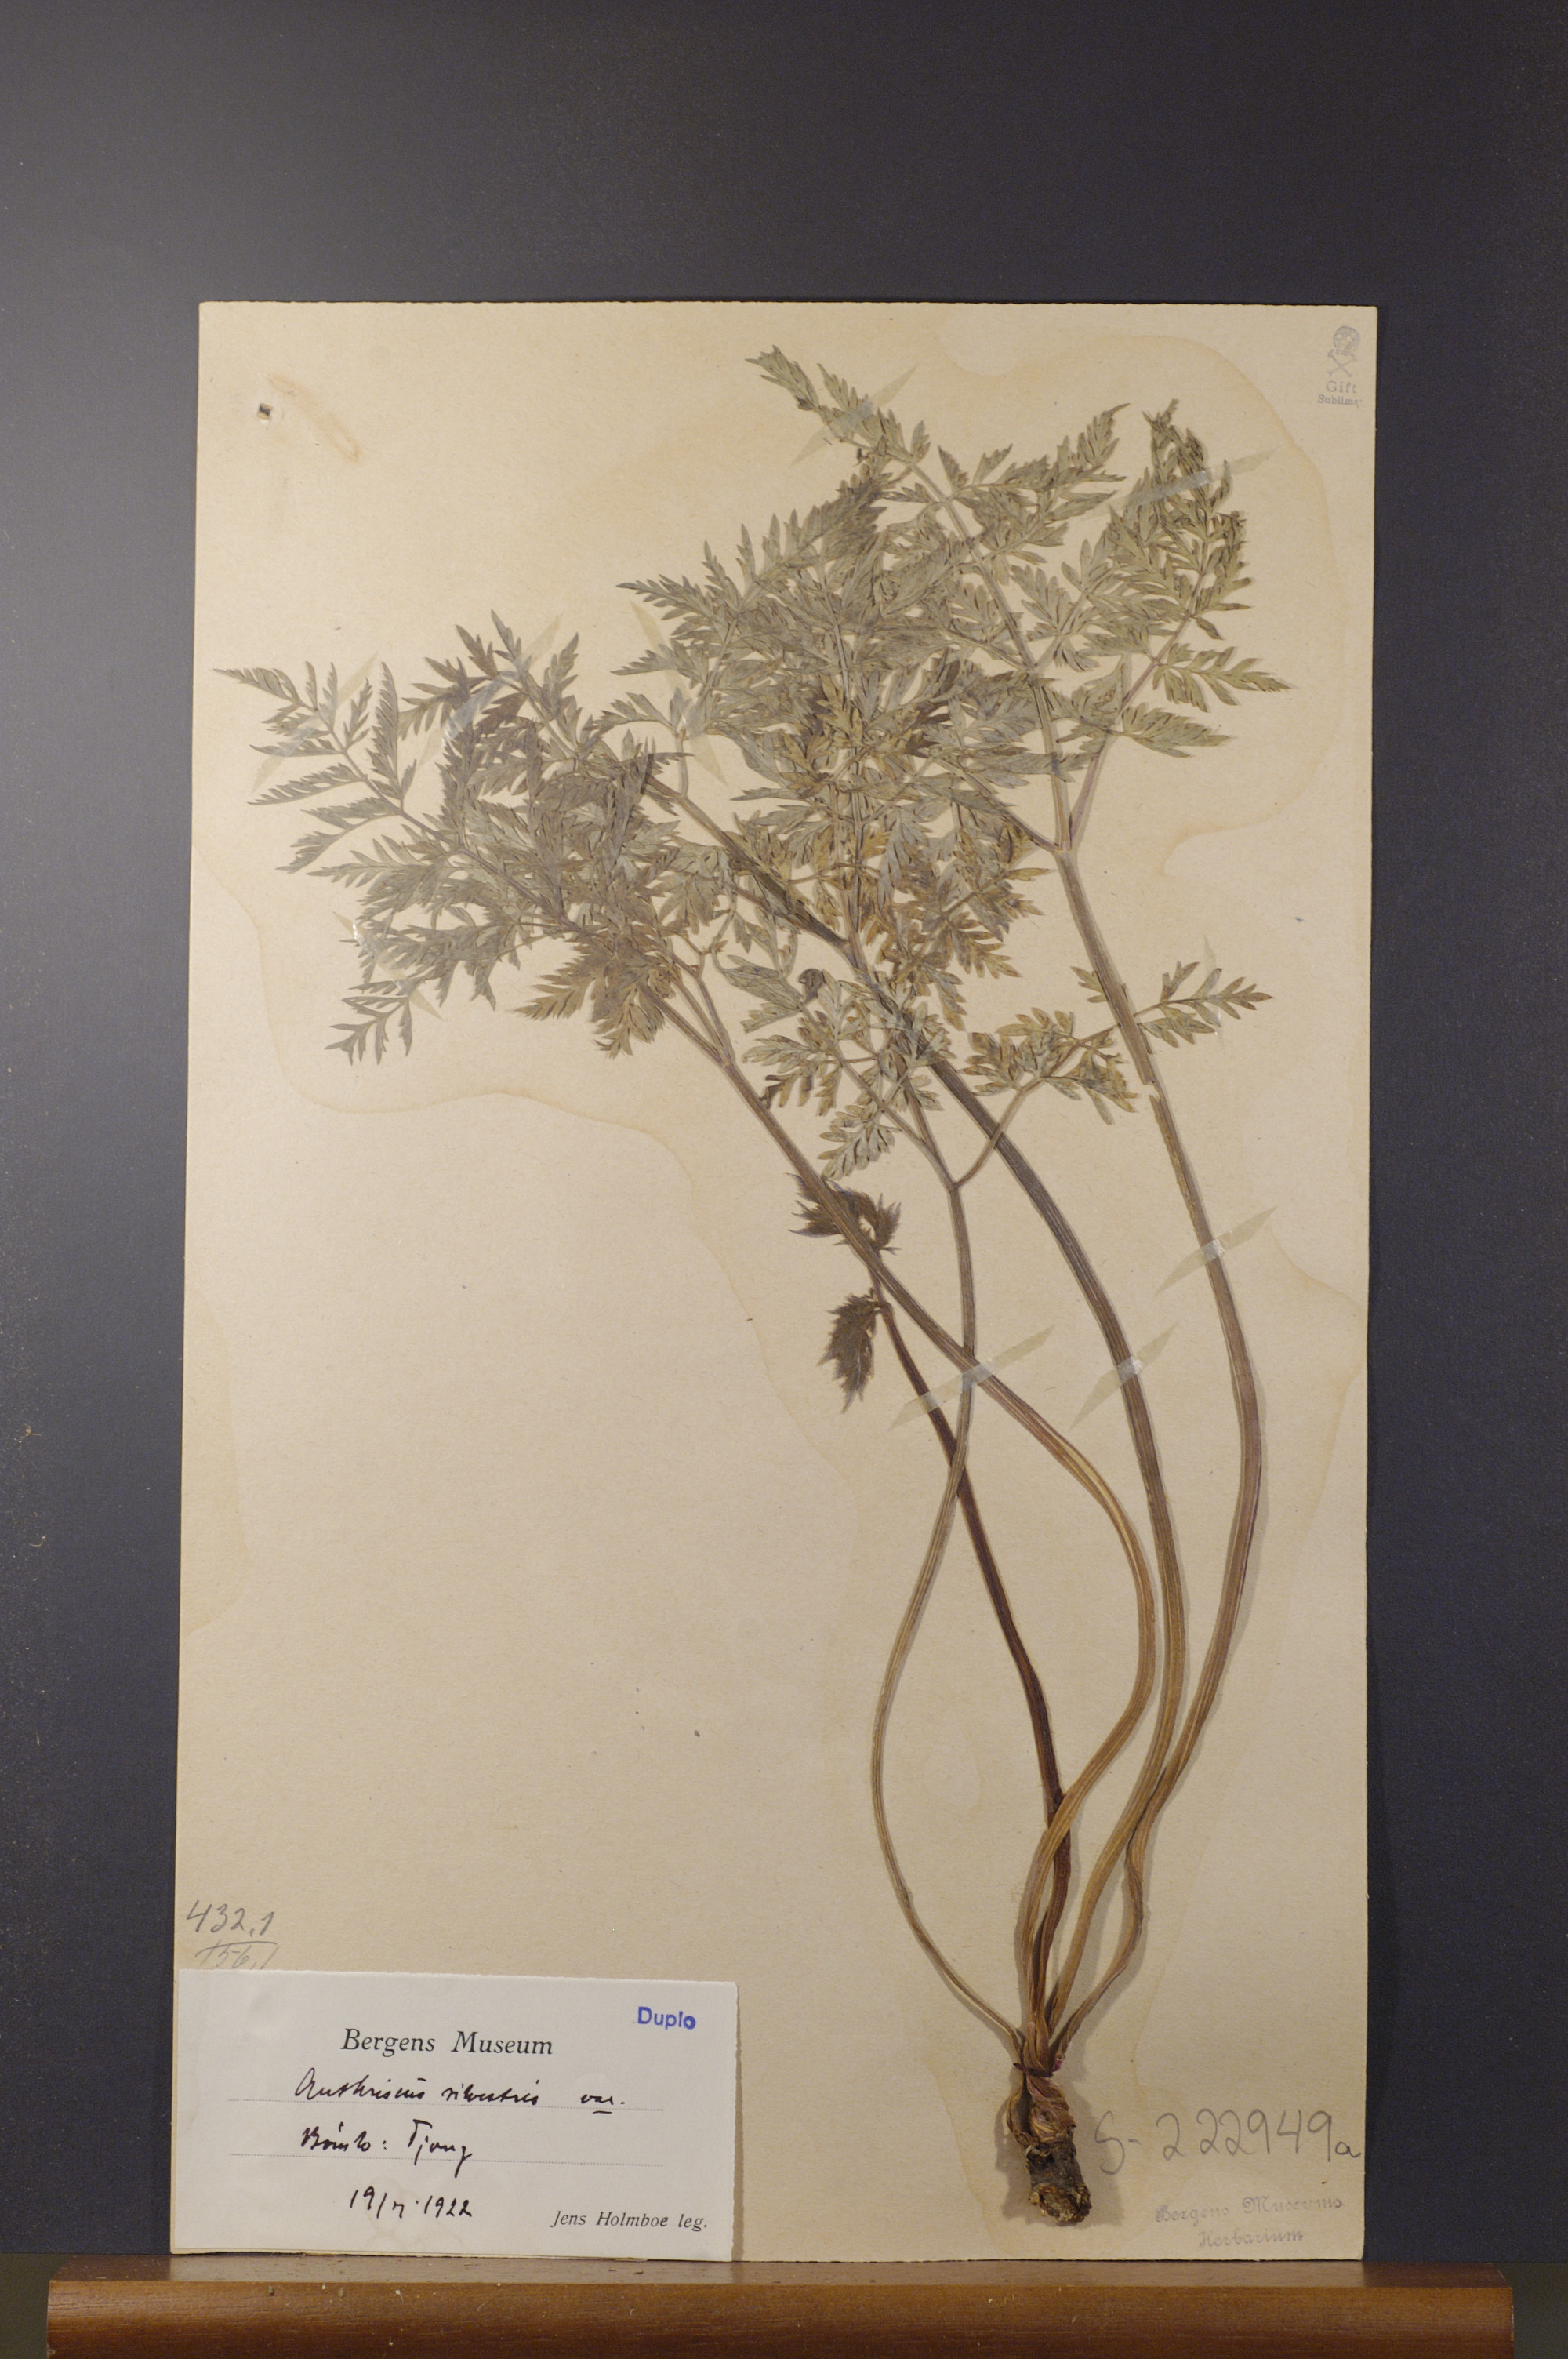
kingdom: Plantae
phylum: Tracheophyta
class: Magnoliopsida
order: Apiales
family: Apiaceae
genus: Anthriscus
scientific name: Anthriscus sylvestris
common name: Cow parsley
